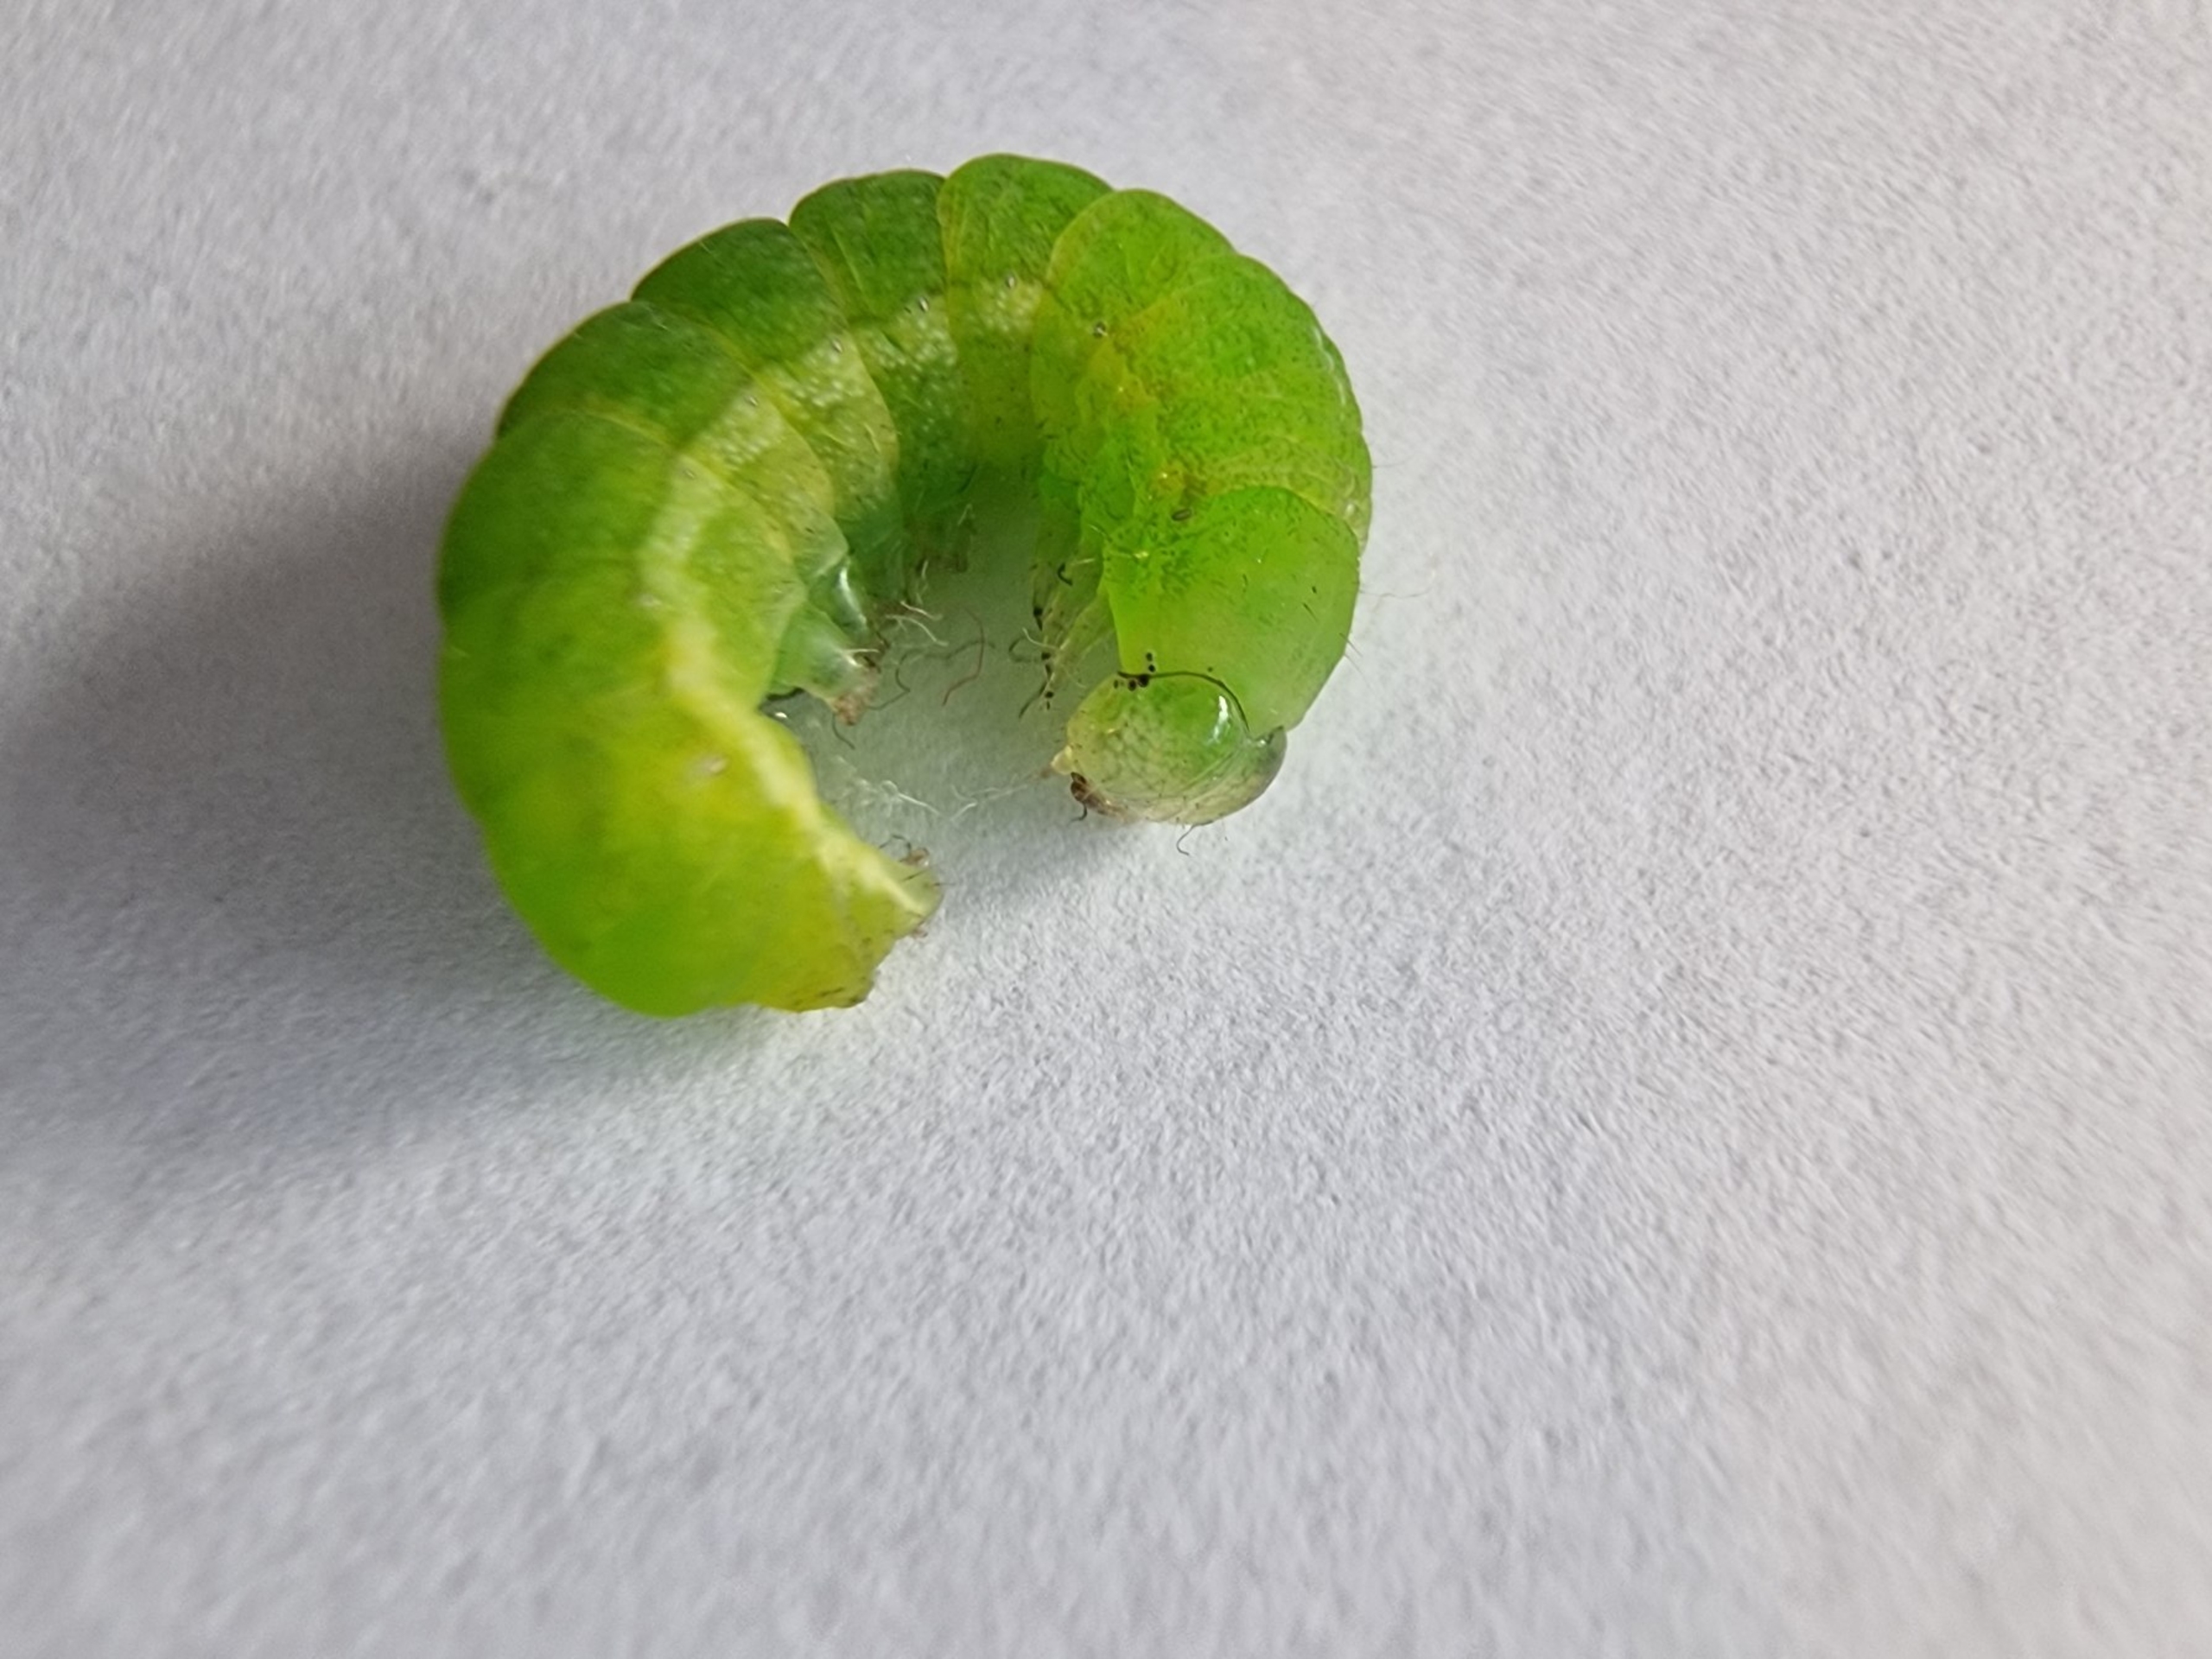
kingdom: Animalia
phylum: Arthropoda
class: Insecta
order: Lepidoptera
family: Noctuidae
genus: Phlogophora
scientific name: Phlogophora meticulosa
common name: Agatugle
